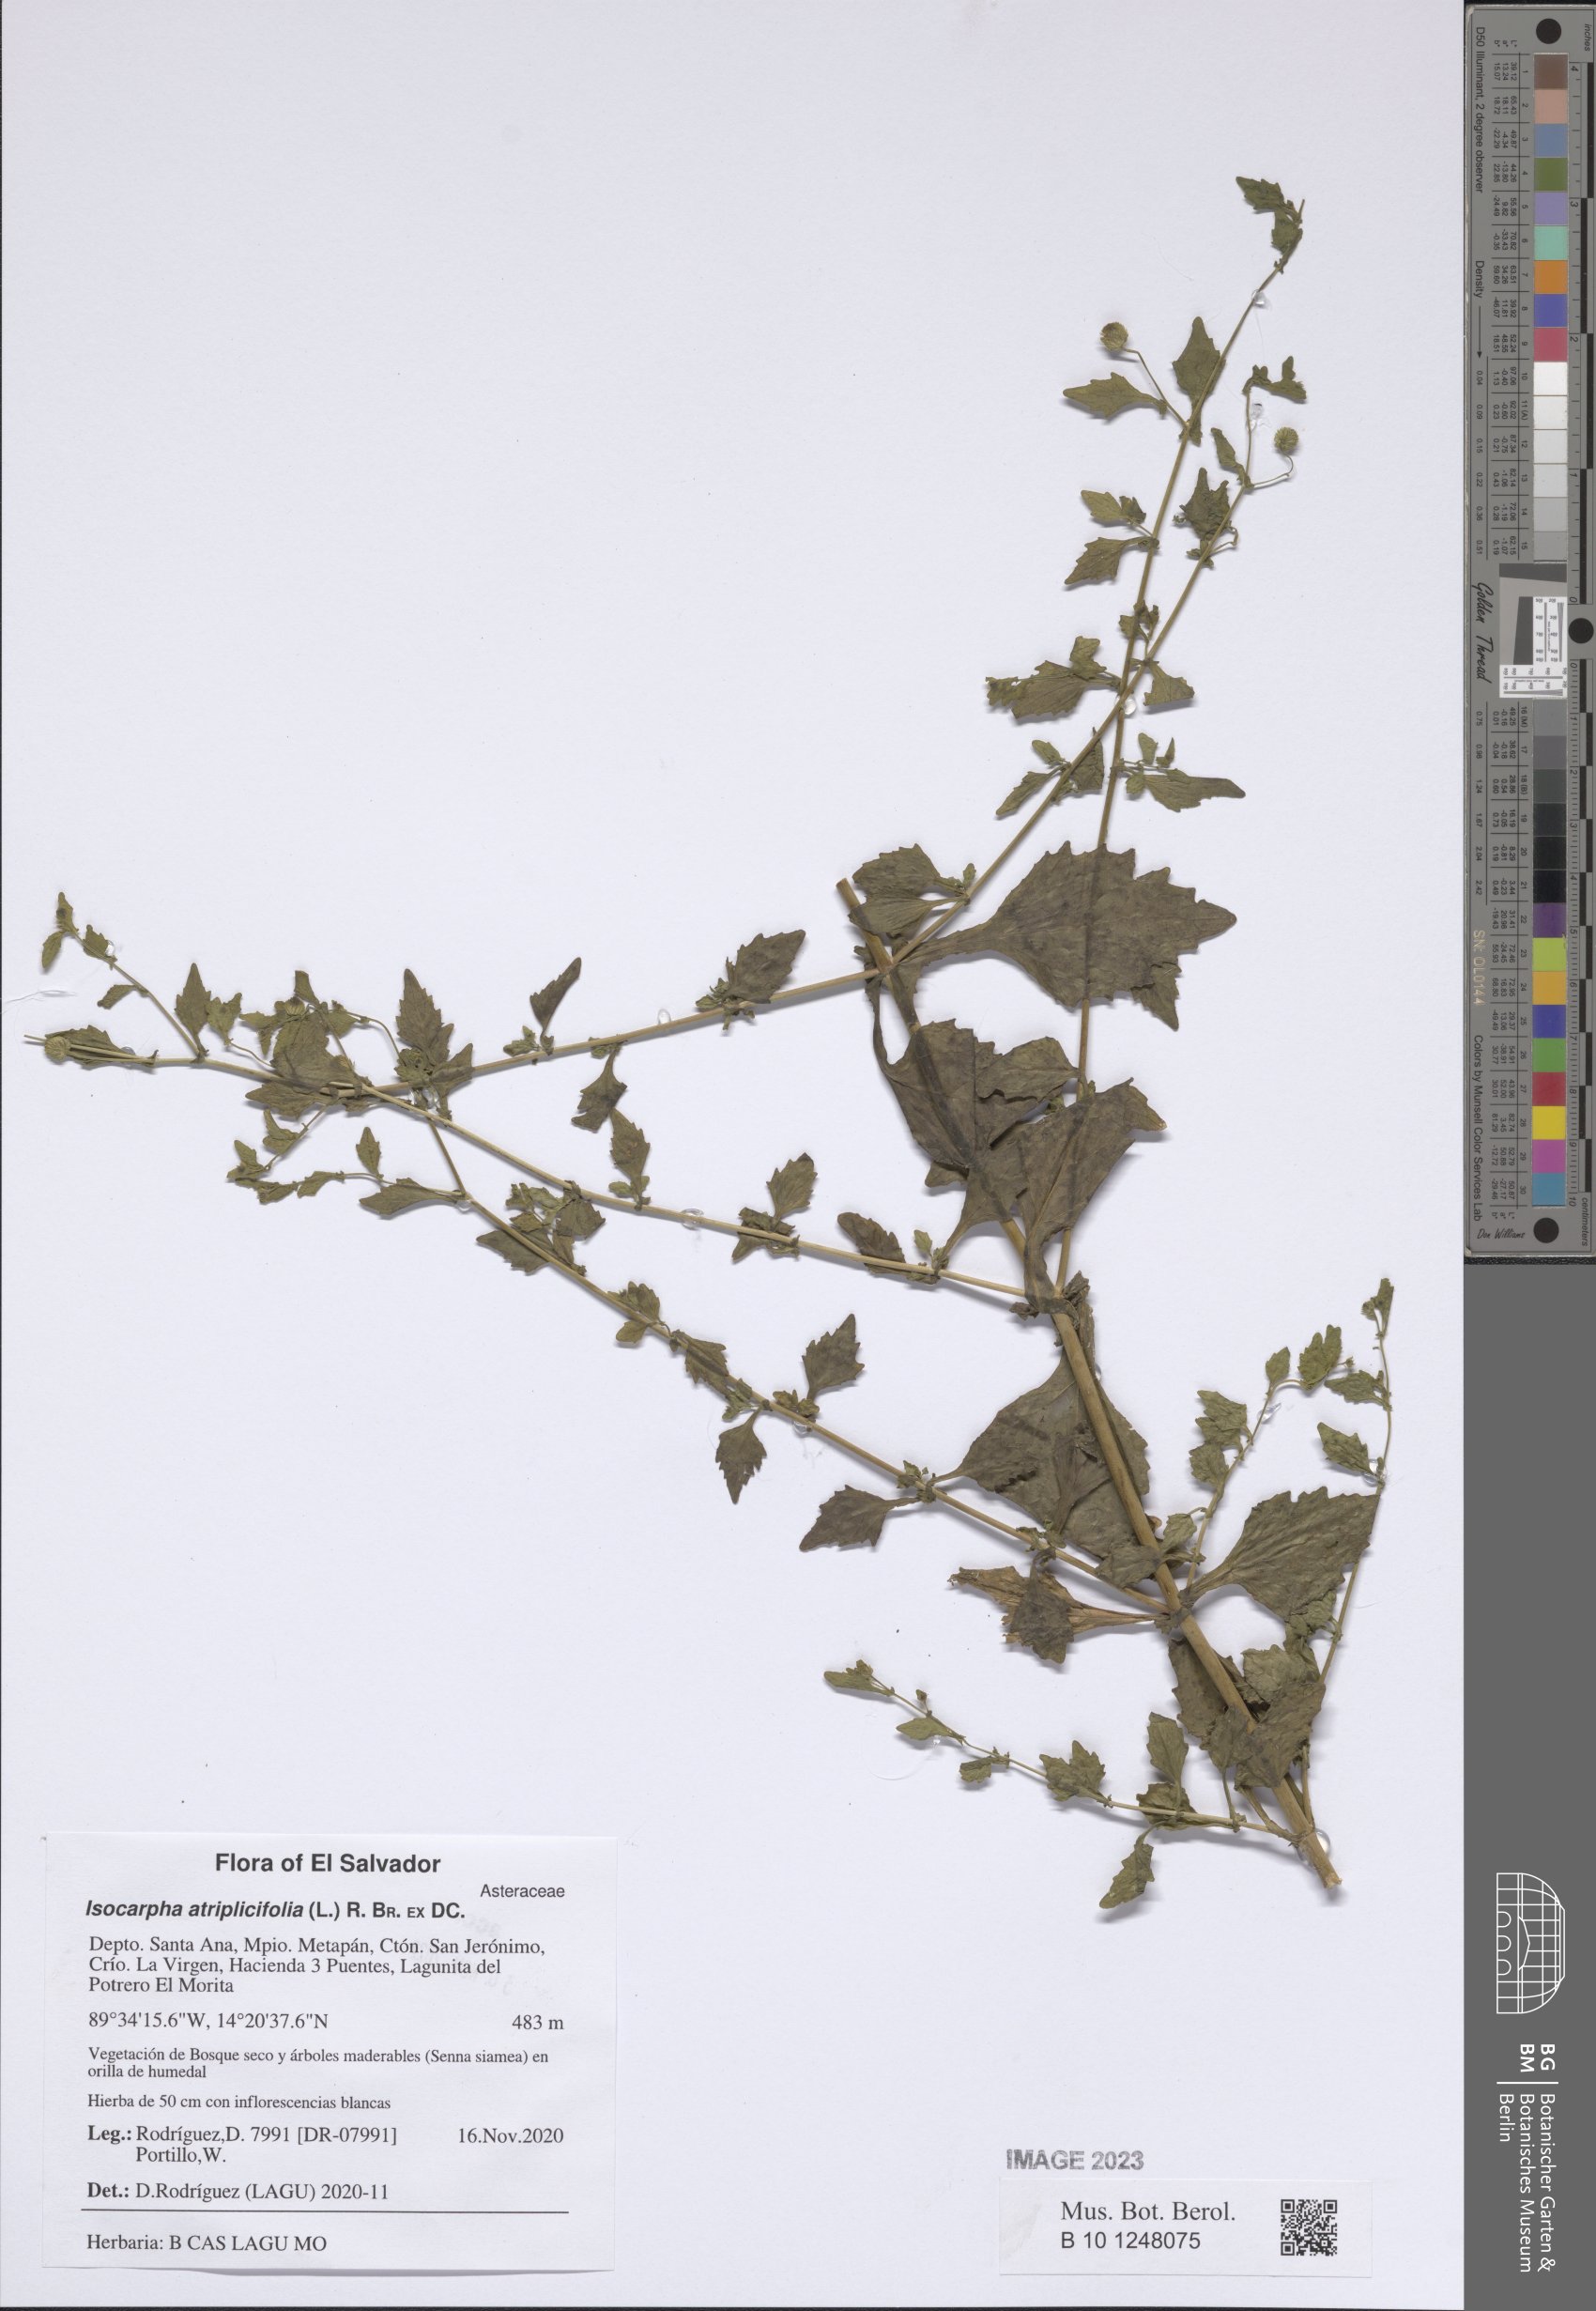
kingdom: Plantae
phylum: Tracheophyta
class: Magnoliopsida
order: Asterales
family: Asteraceae
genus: Isocarpha
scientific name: Isocarpha atriplicifolia
